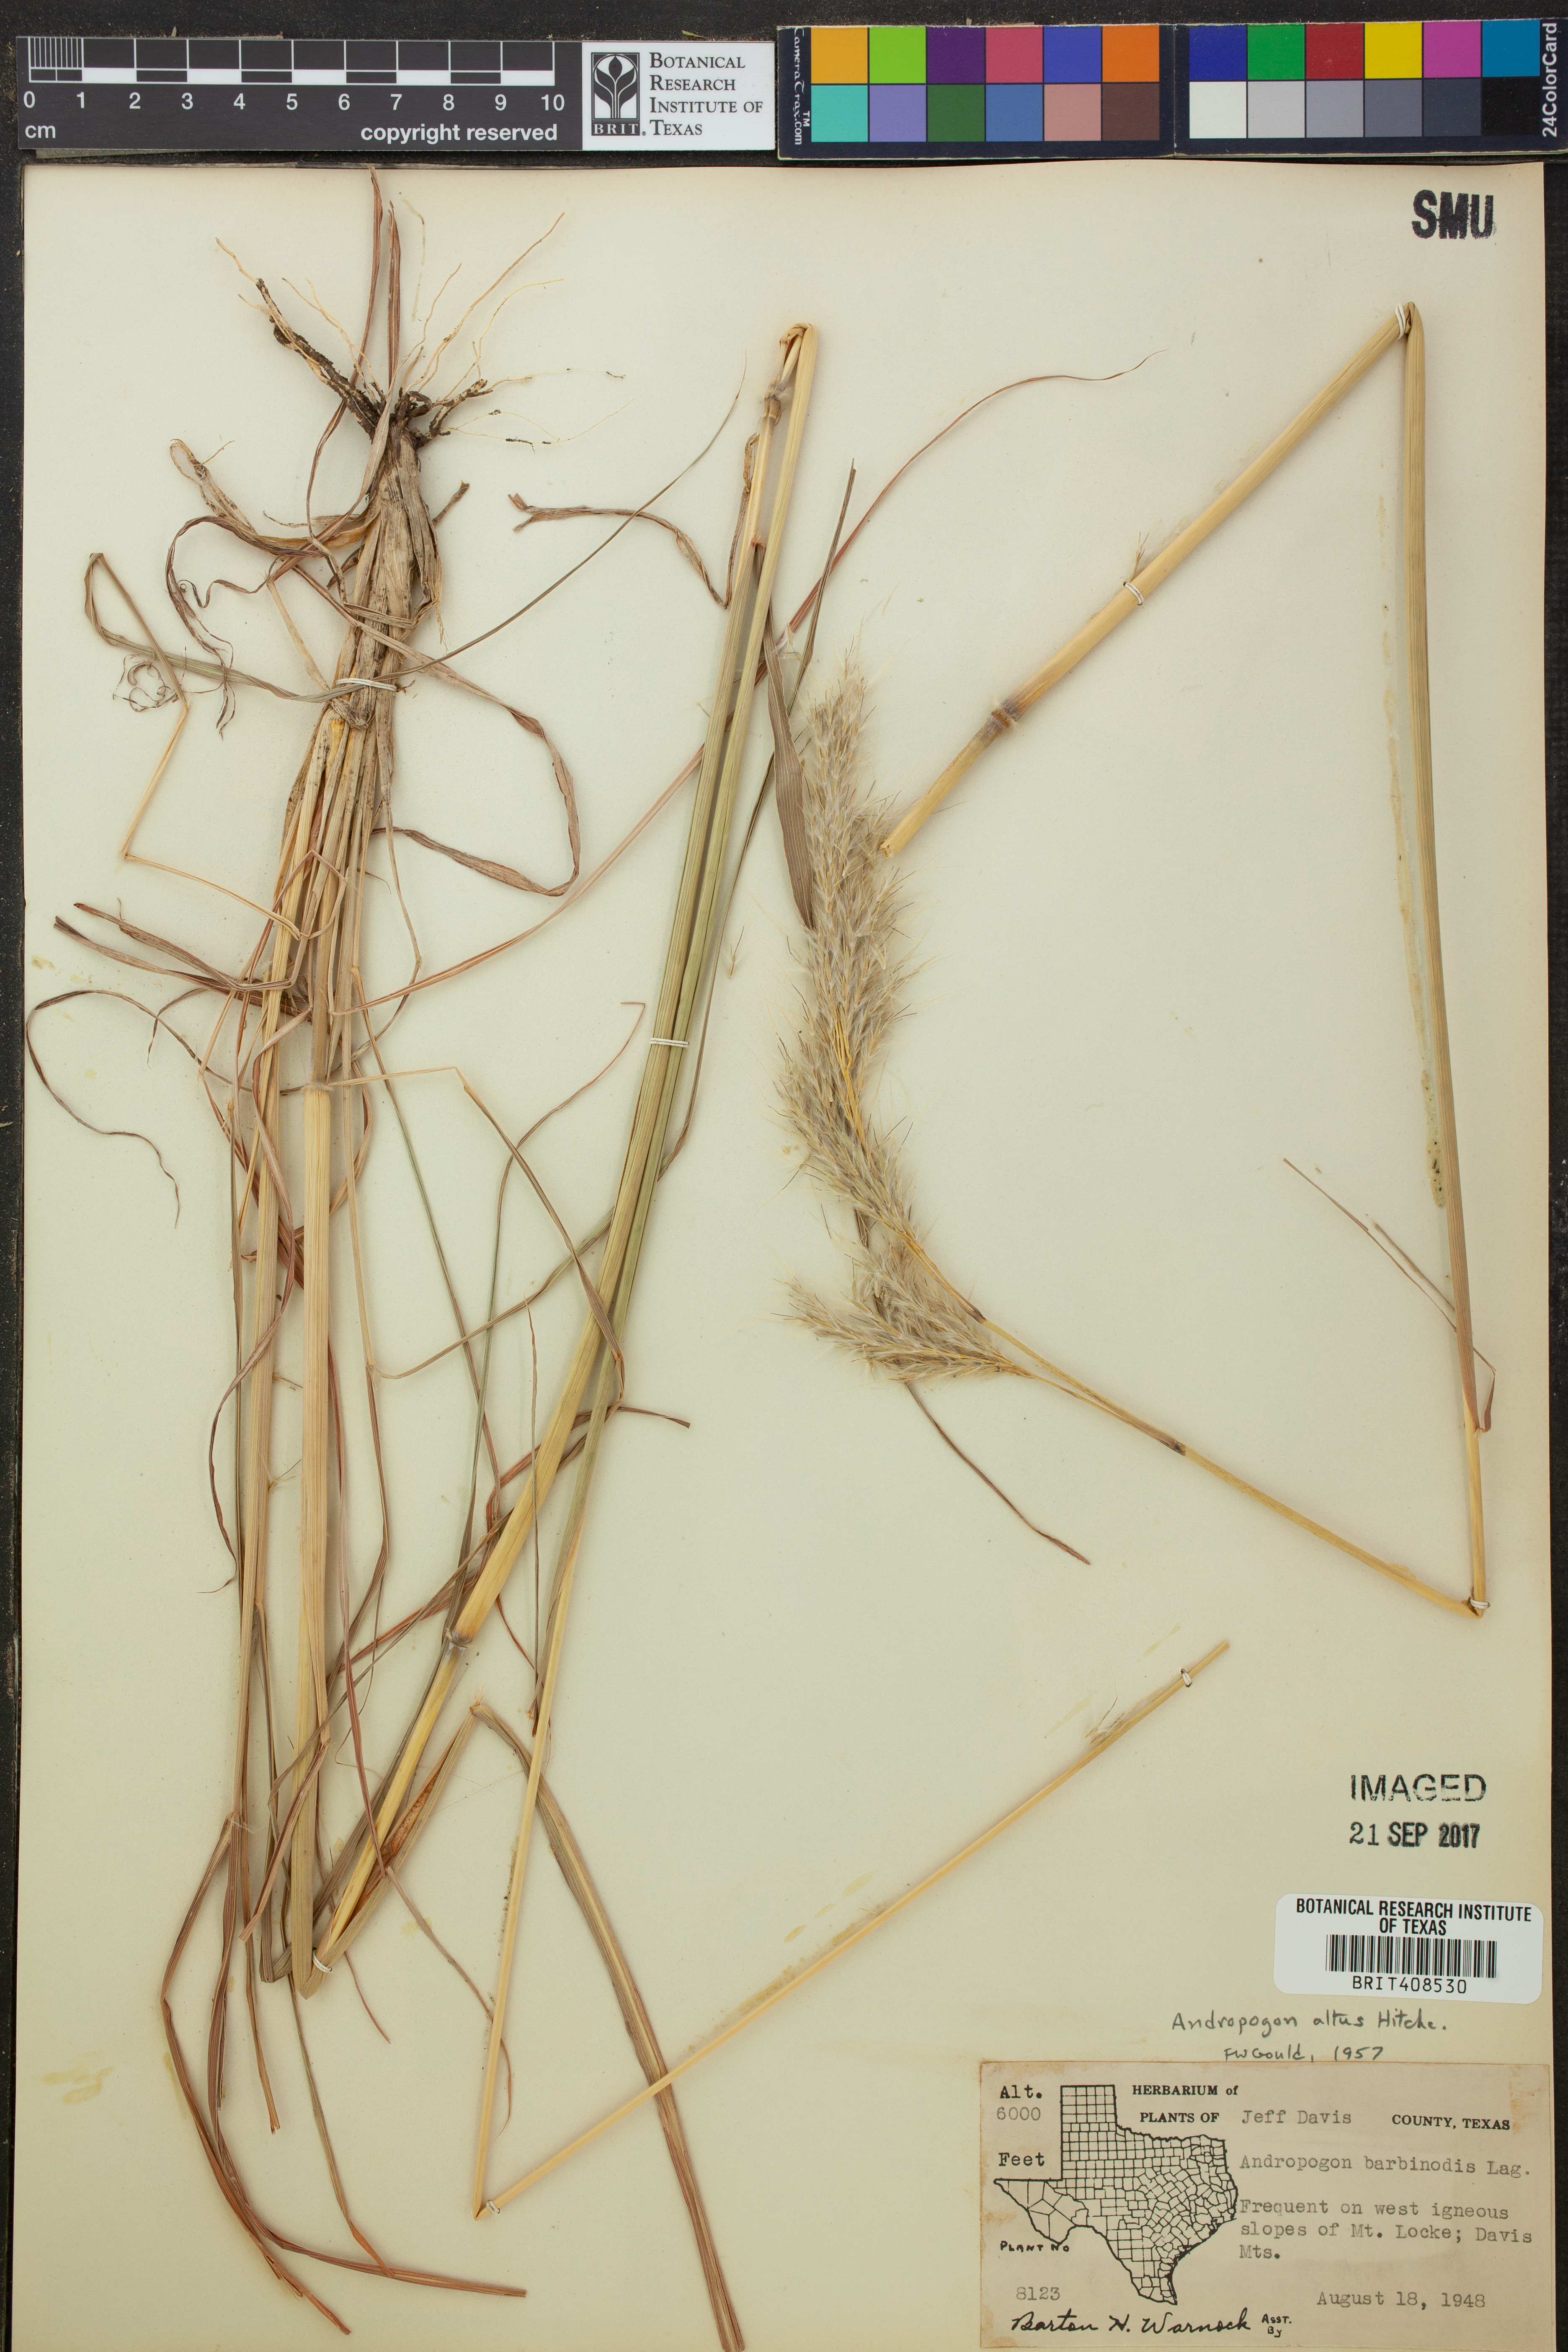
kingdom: Plantae
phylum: Tracheophyta
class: Liliopsida
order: Poales
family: Poaceae
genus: Bothriochloa
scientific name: Bothriochloa alta
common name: Tall bluestem
